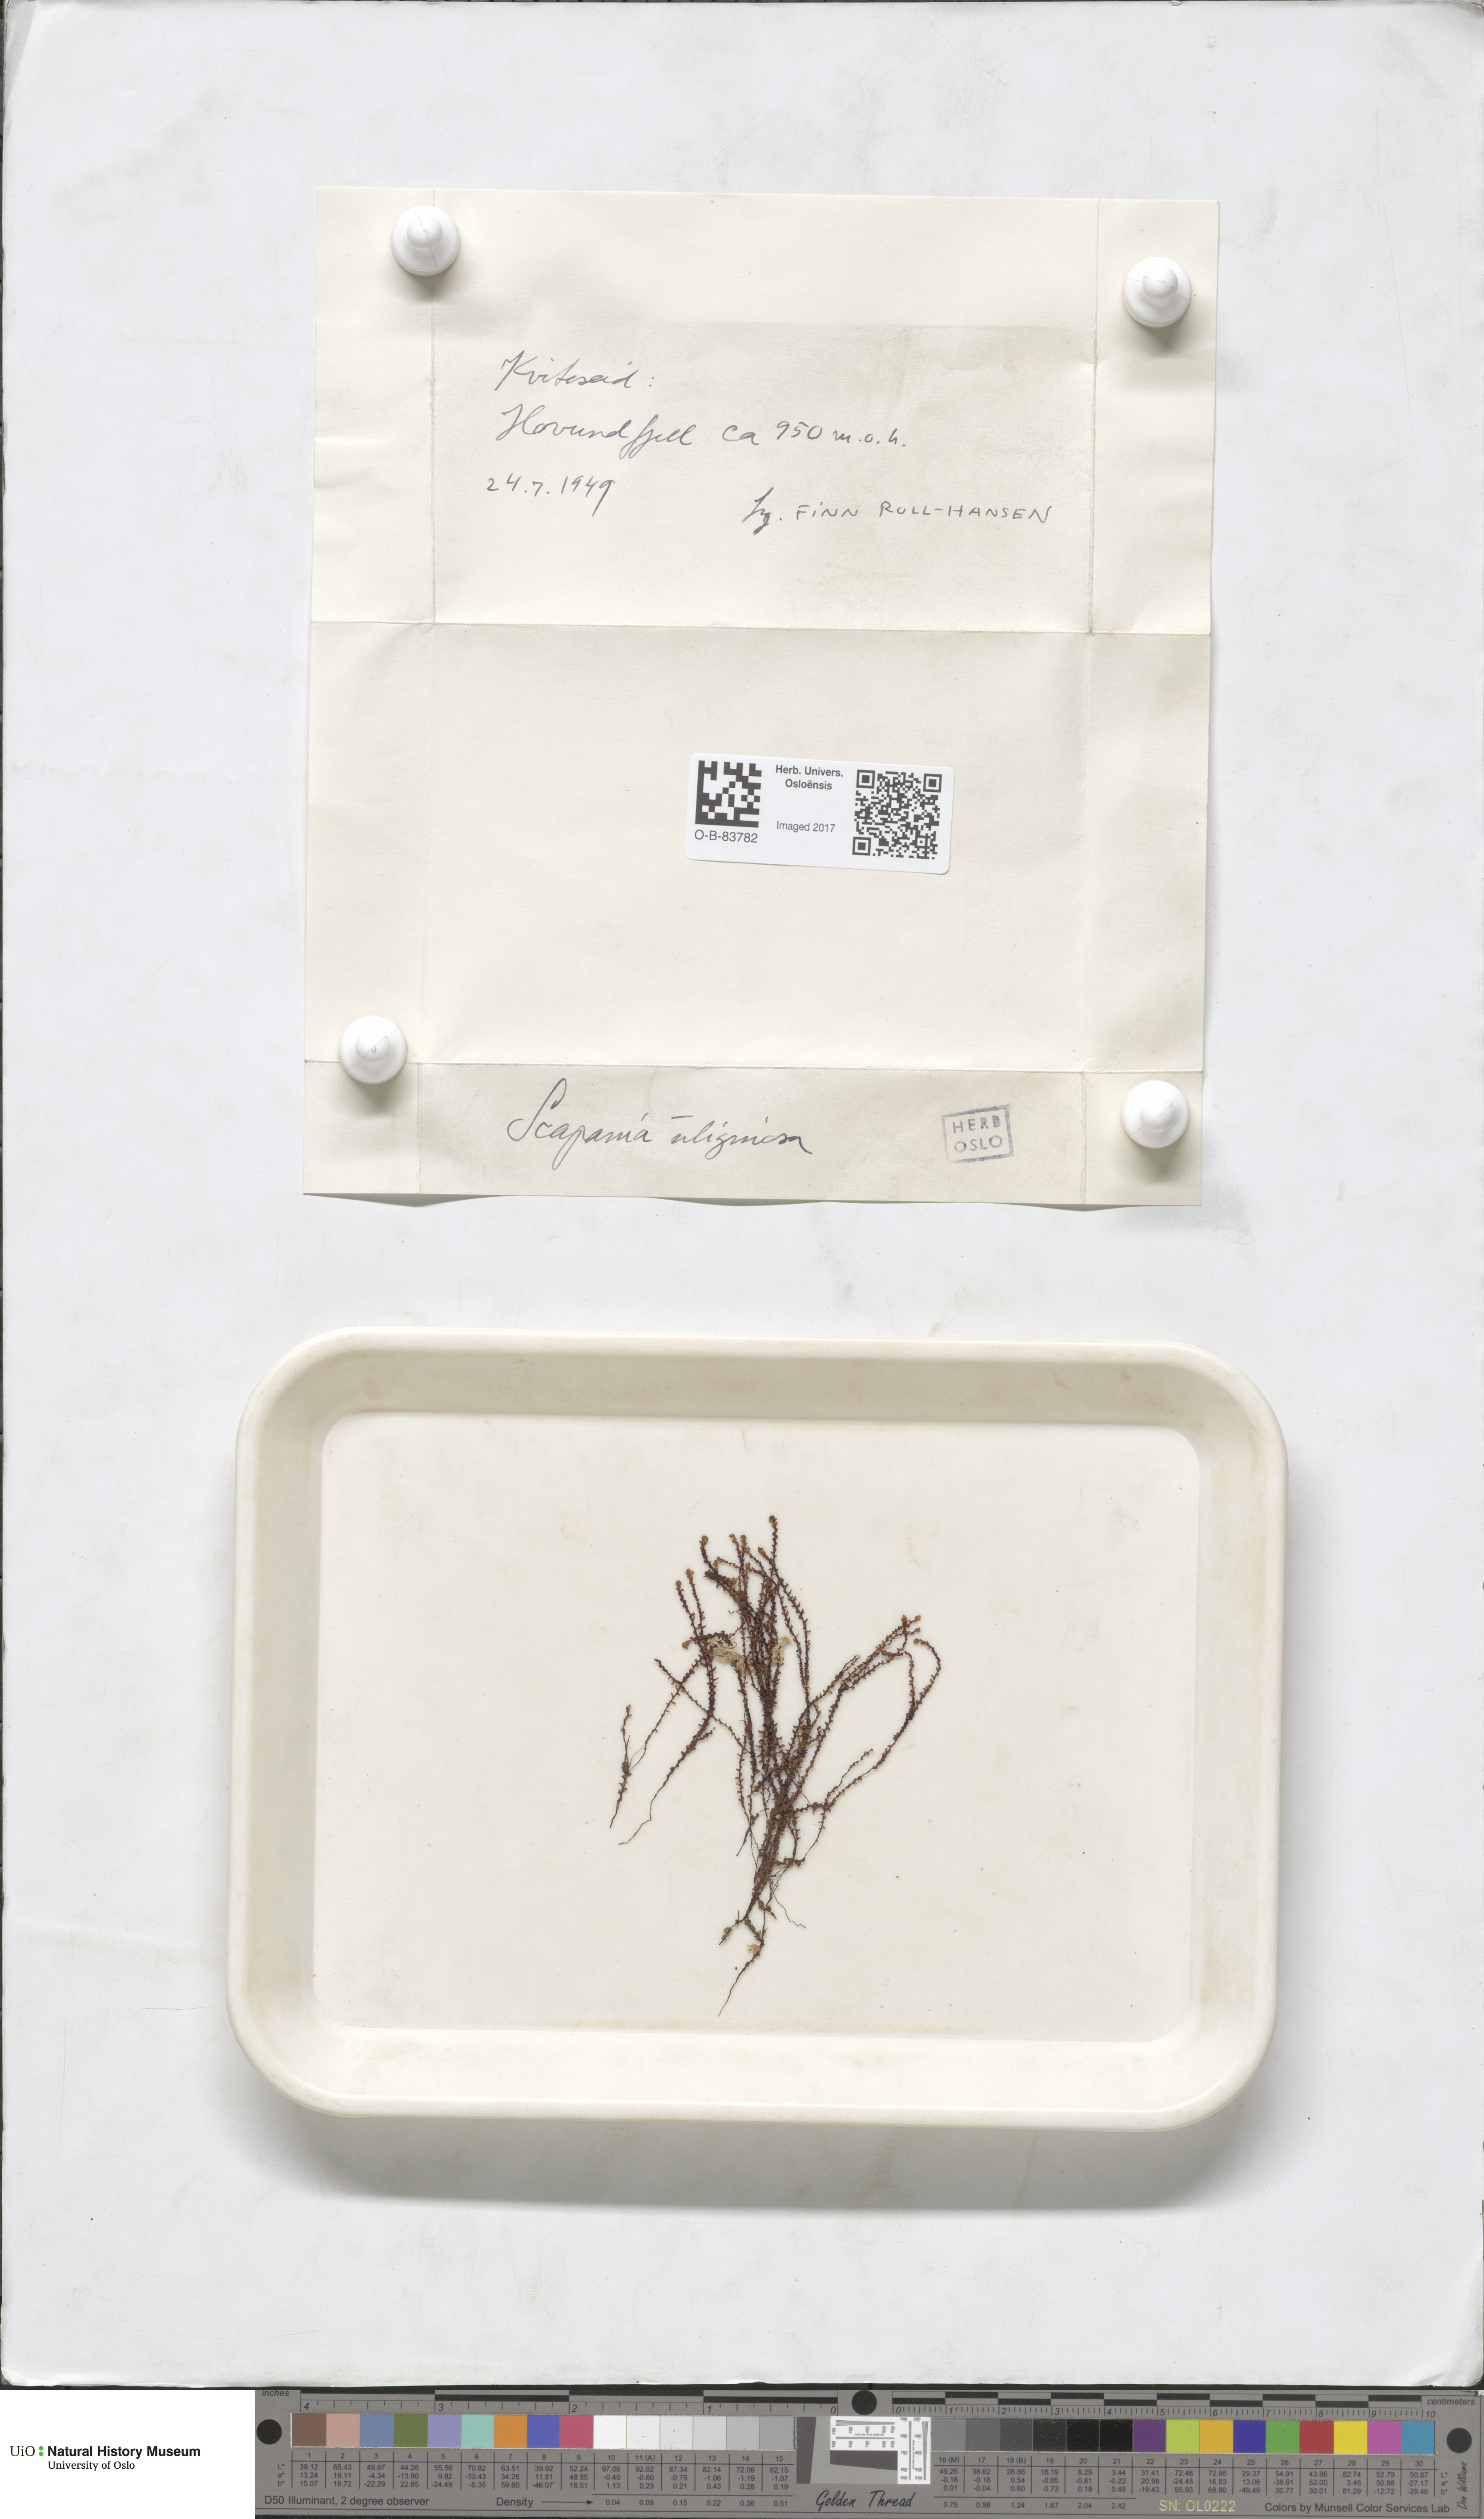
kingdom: Plantae
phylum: Marchantiophyta
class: Jungermanniopsida
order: Jungermanniales
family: Scapaniaceae
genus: Scapania
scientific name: Scapania uliginosa
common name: Marsh earwort
